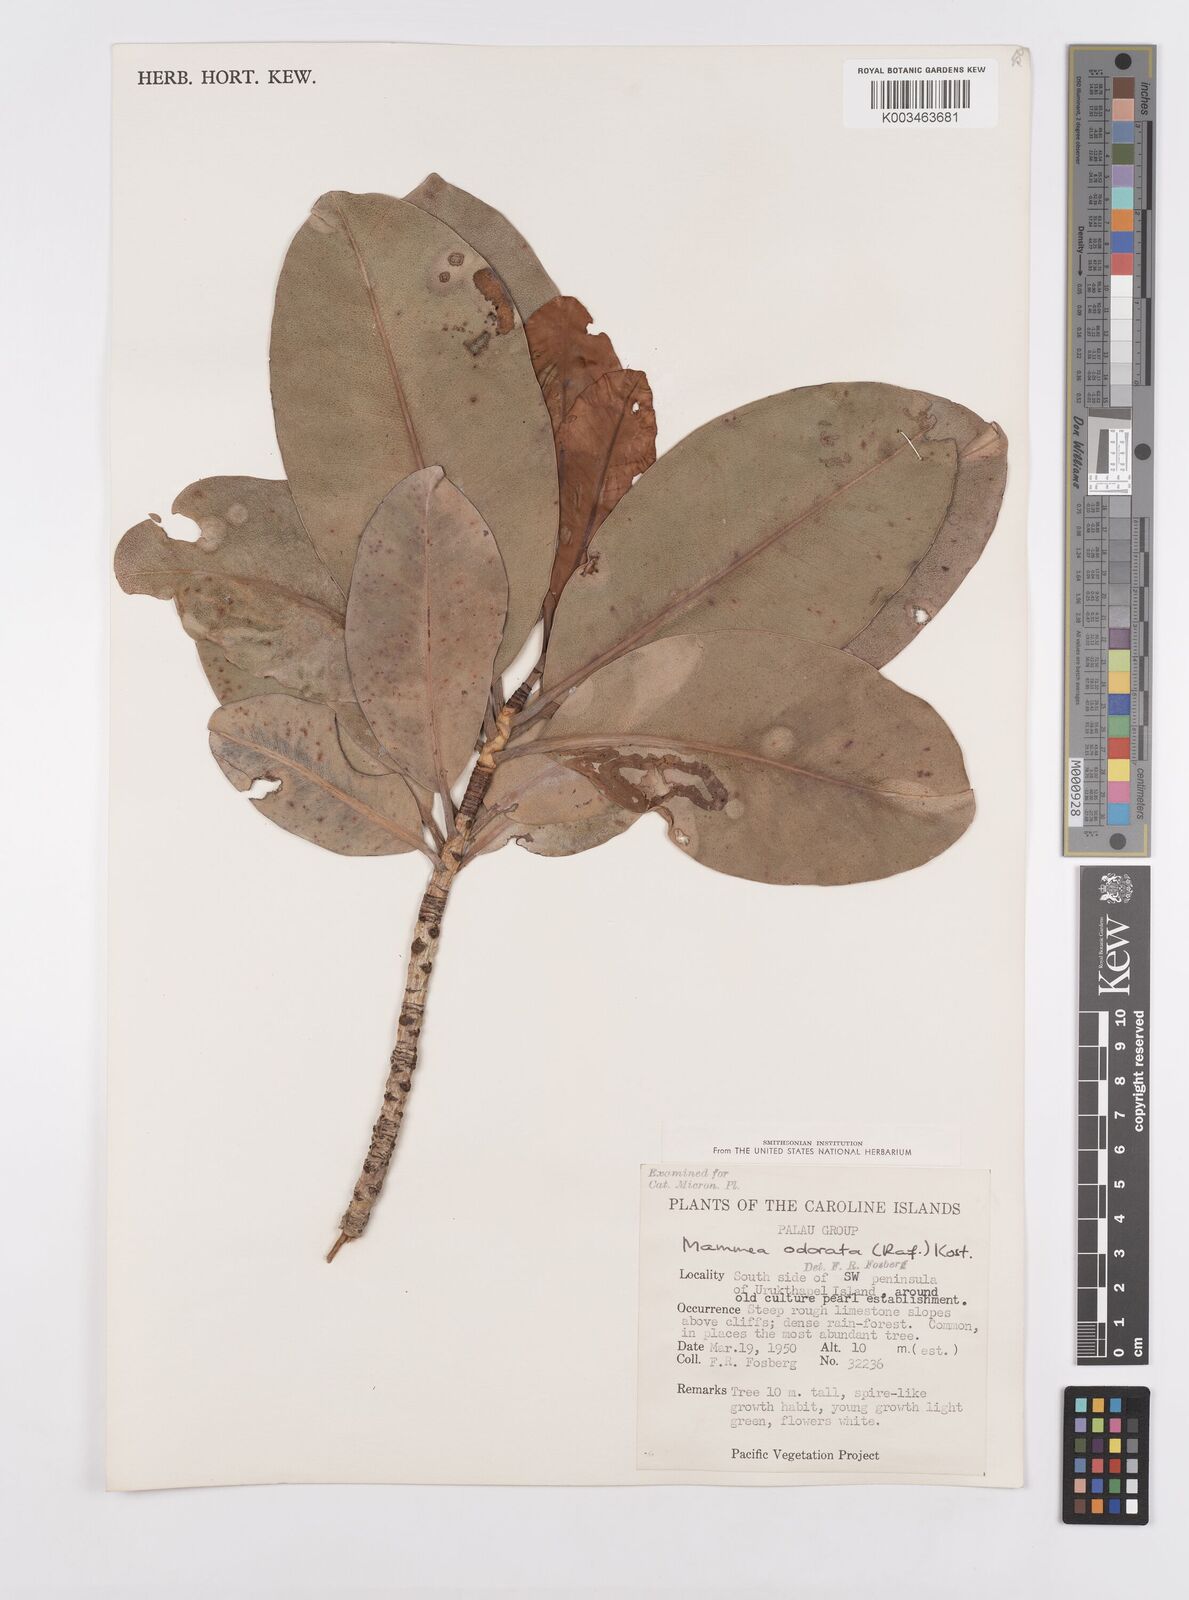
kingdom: Plantae
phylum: Tracheophyta
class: Magnoliopsida
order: Malpighiales
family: Calophyllaceae
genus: Mammea
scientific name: Mammea odorata
